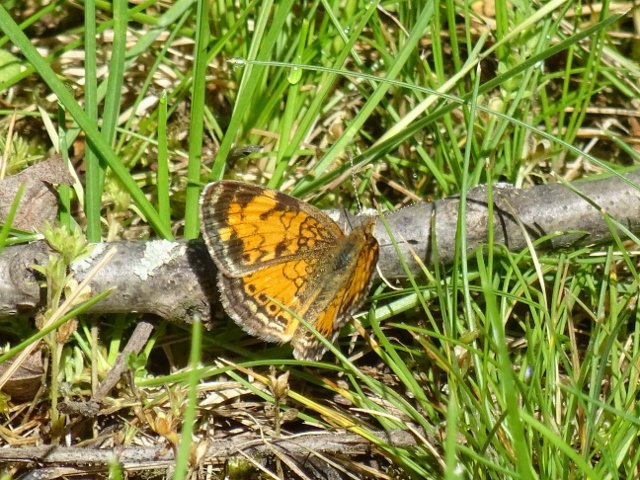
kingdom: Animalia
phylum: Arthropoda
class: Insecta
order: Lepidoptera
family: Nymphalidae
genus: Phyciodes
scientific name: Phyciodes tharos
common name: Pearl Crescent
